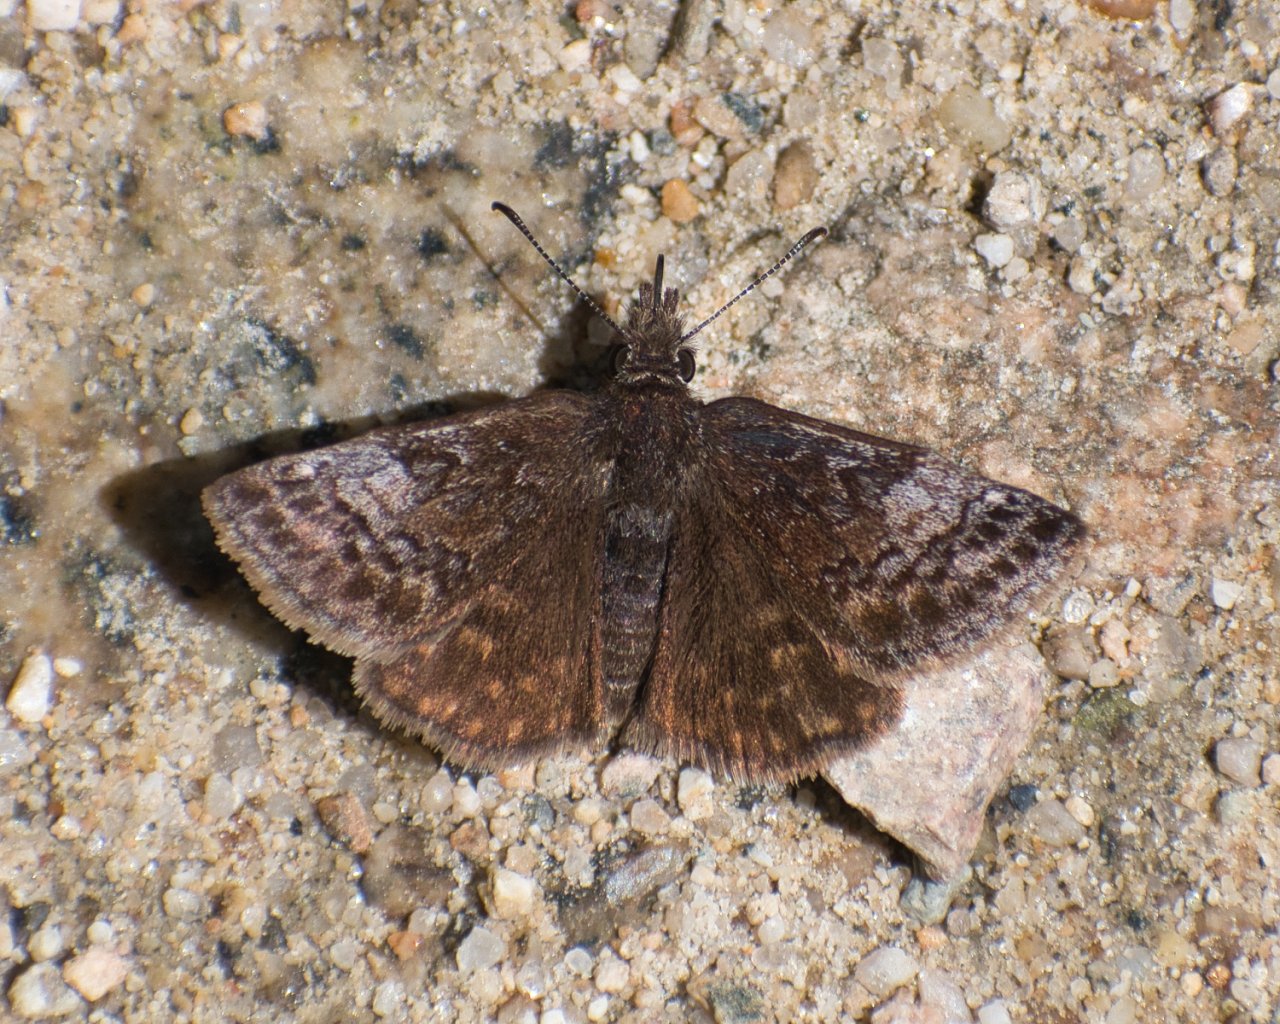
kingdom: Animalia
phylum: Arthropoda
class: Insecta
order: Lepidoptera
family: Hesperiidae
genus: Erynnis
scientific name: Erynnis icelus
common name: Dreamy Duskywing
